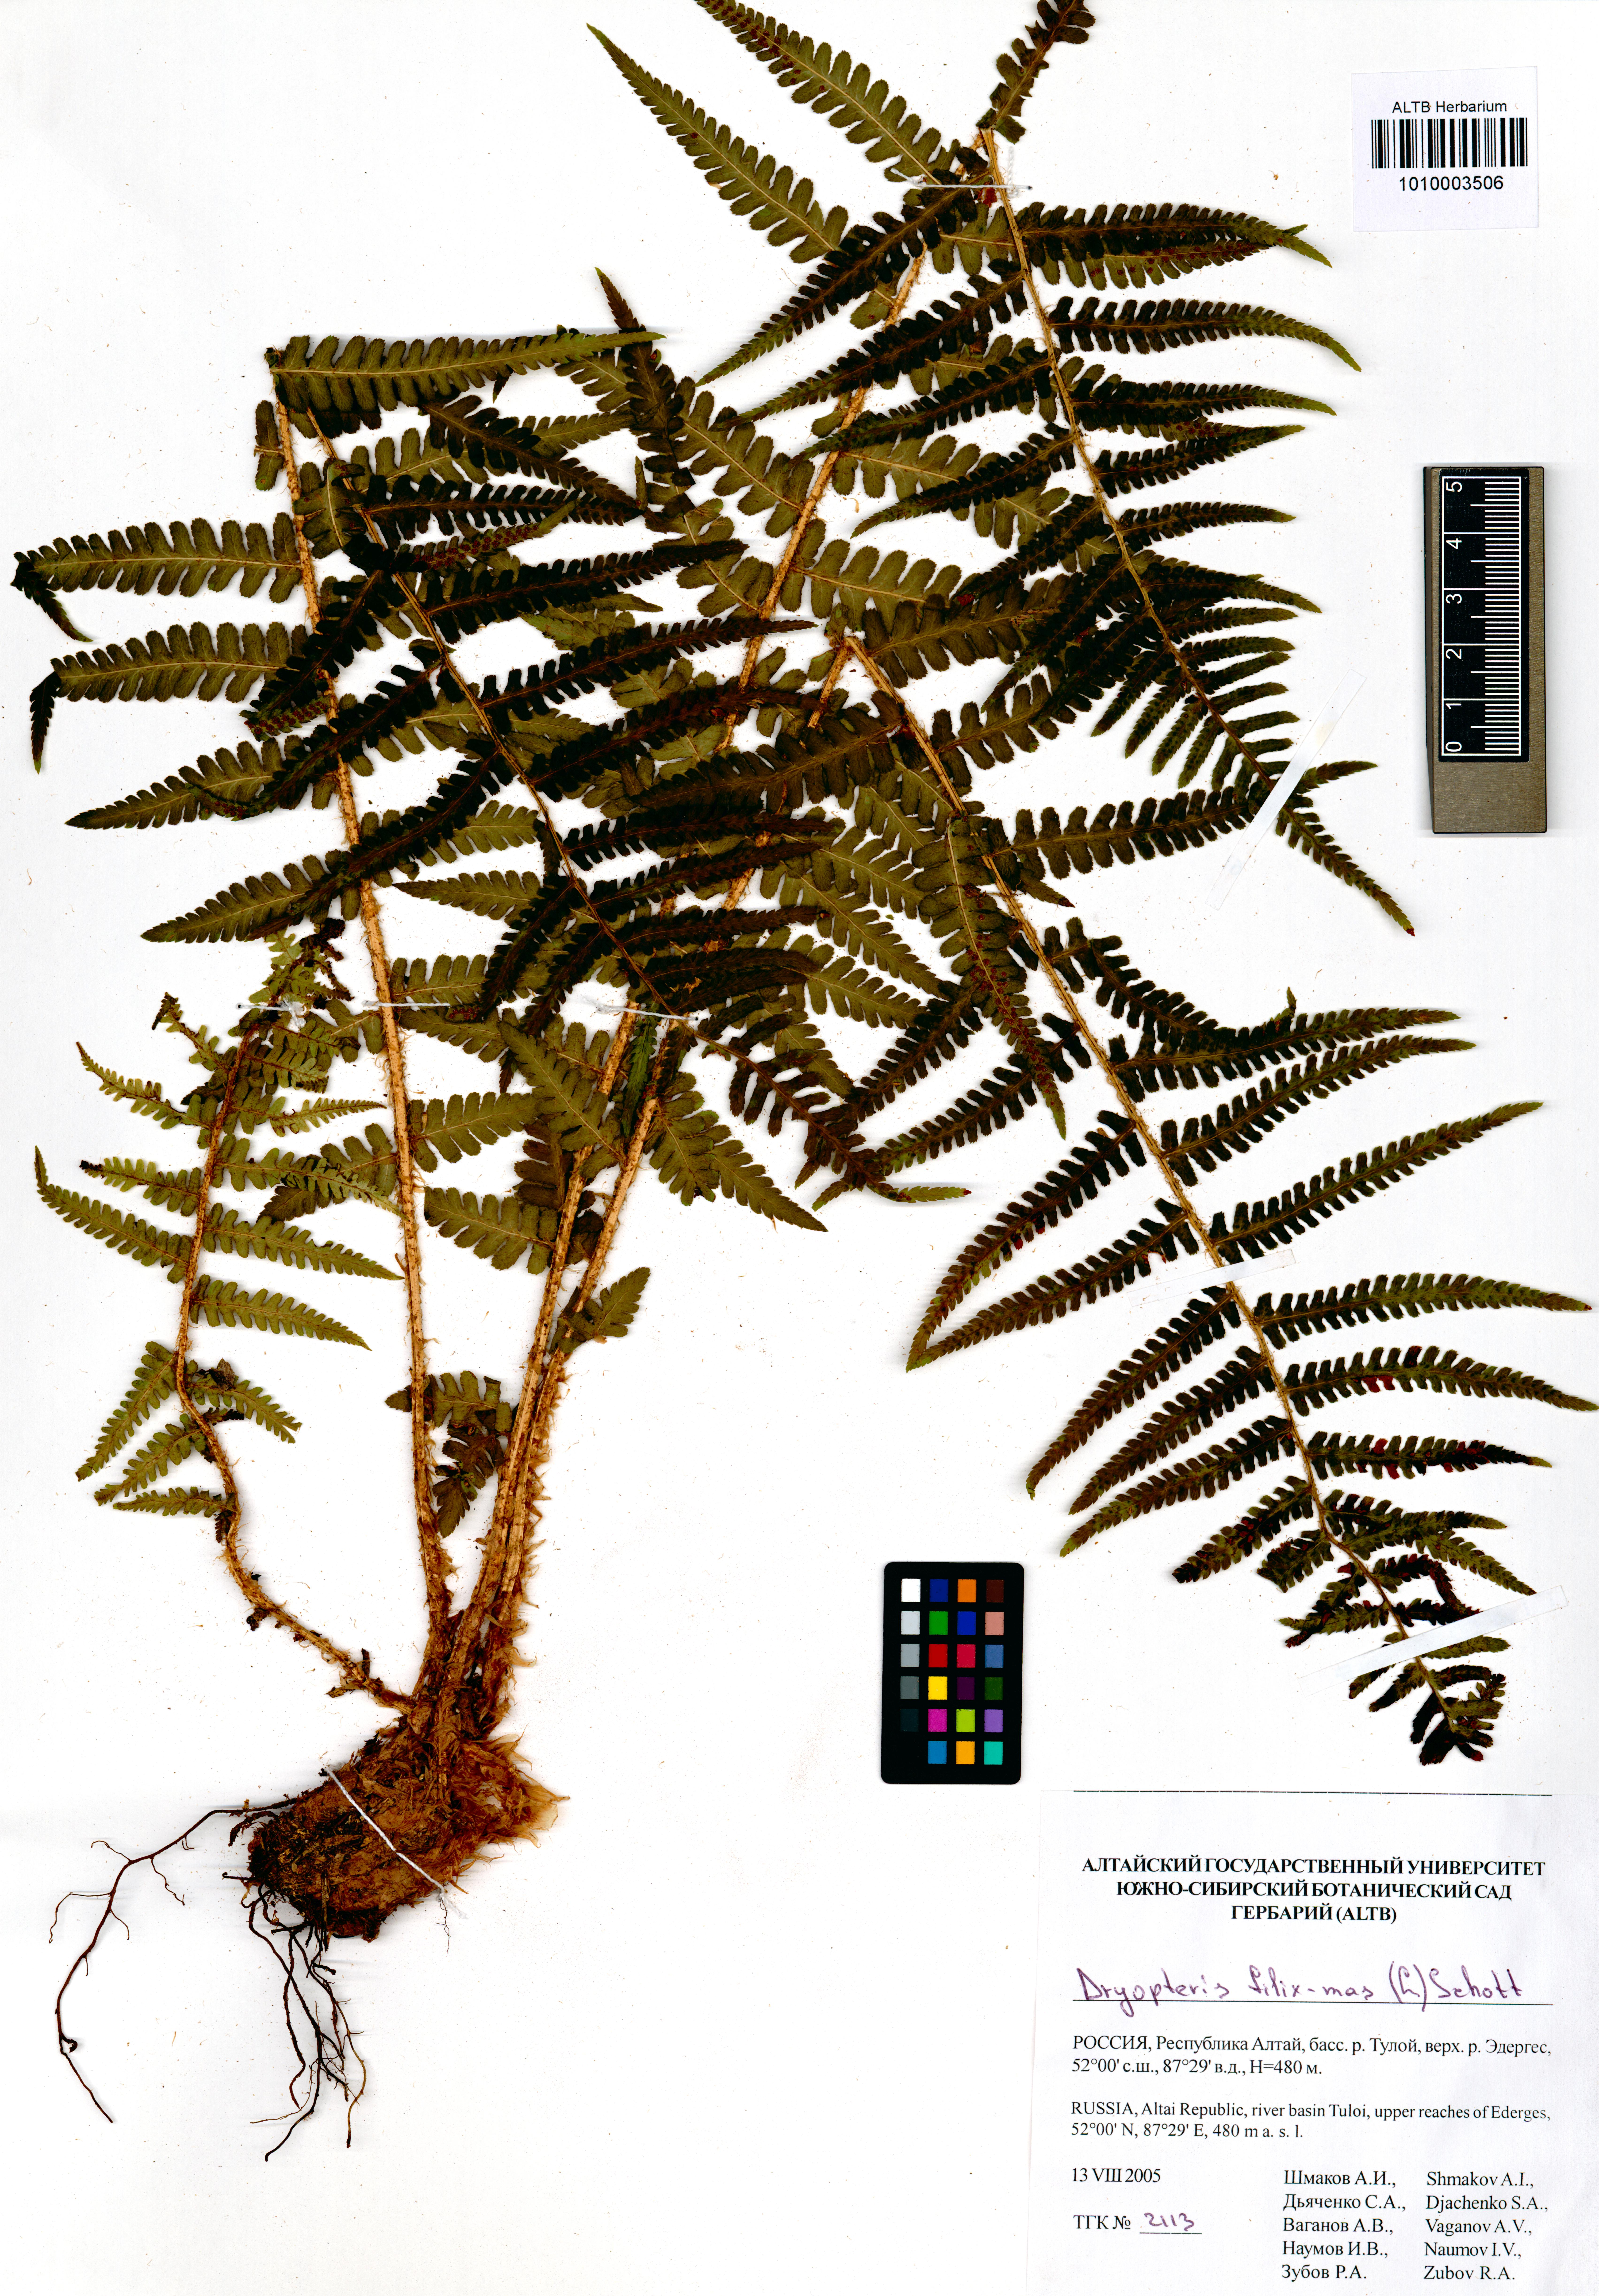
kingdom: Plantae
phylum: Tracheophyta
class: Polypodiopsida
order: Polypodiales
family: Dryopteridaceae
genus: Dryopteris
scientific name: Dryopteris filix-mas
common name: Male fern
